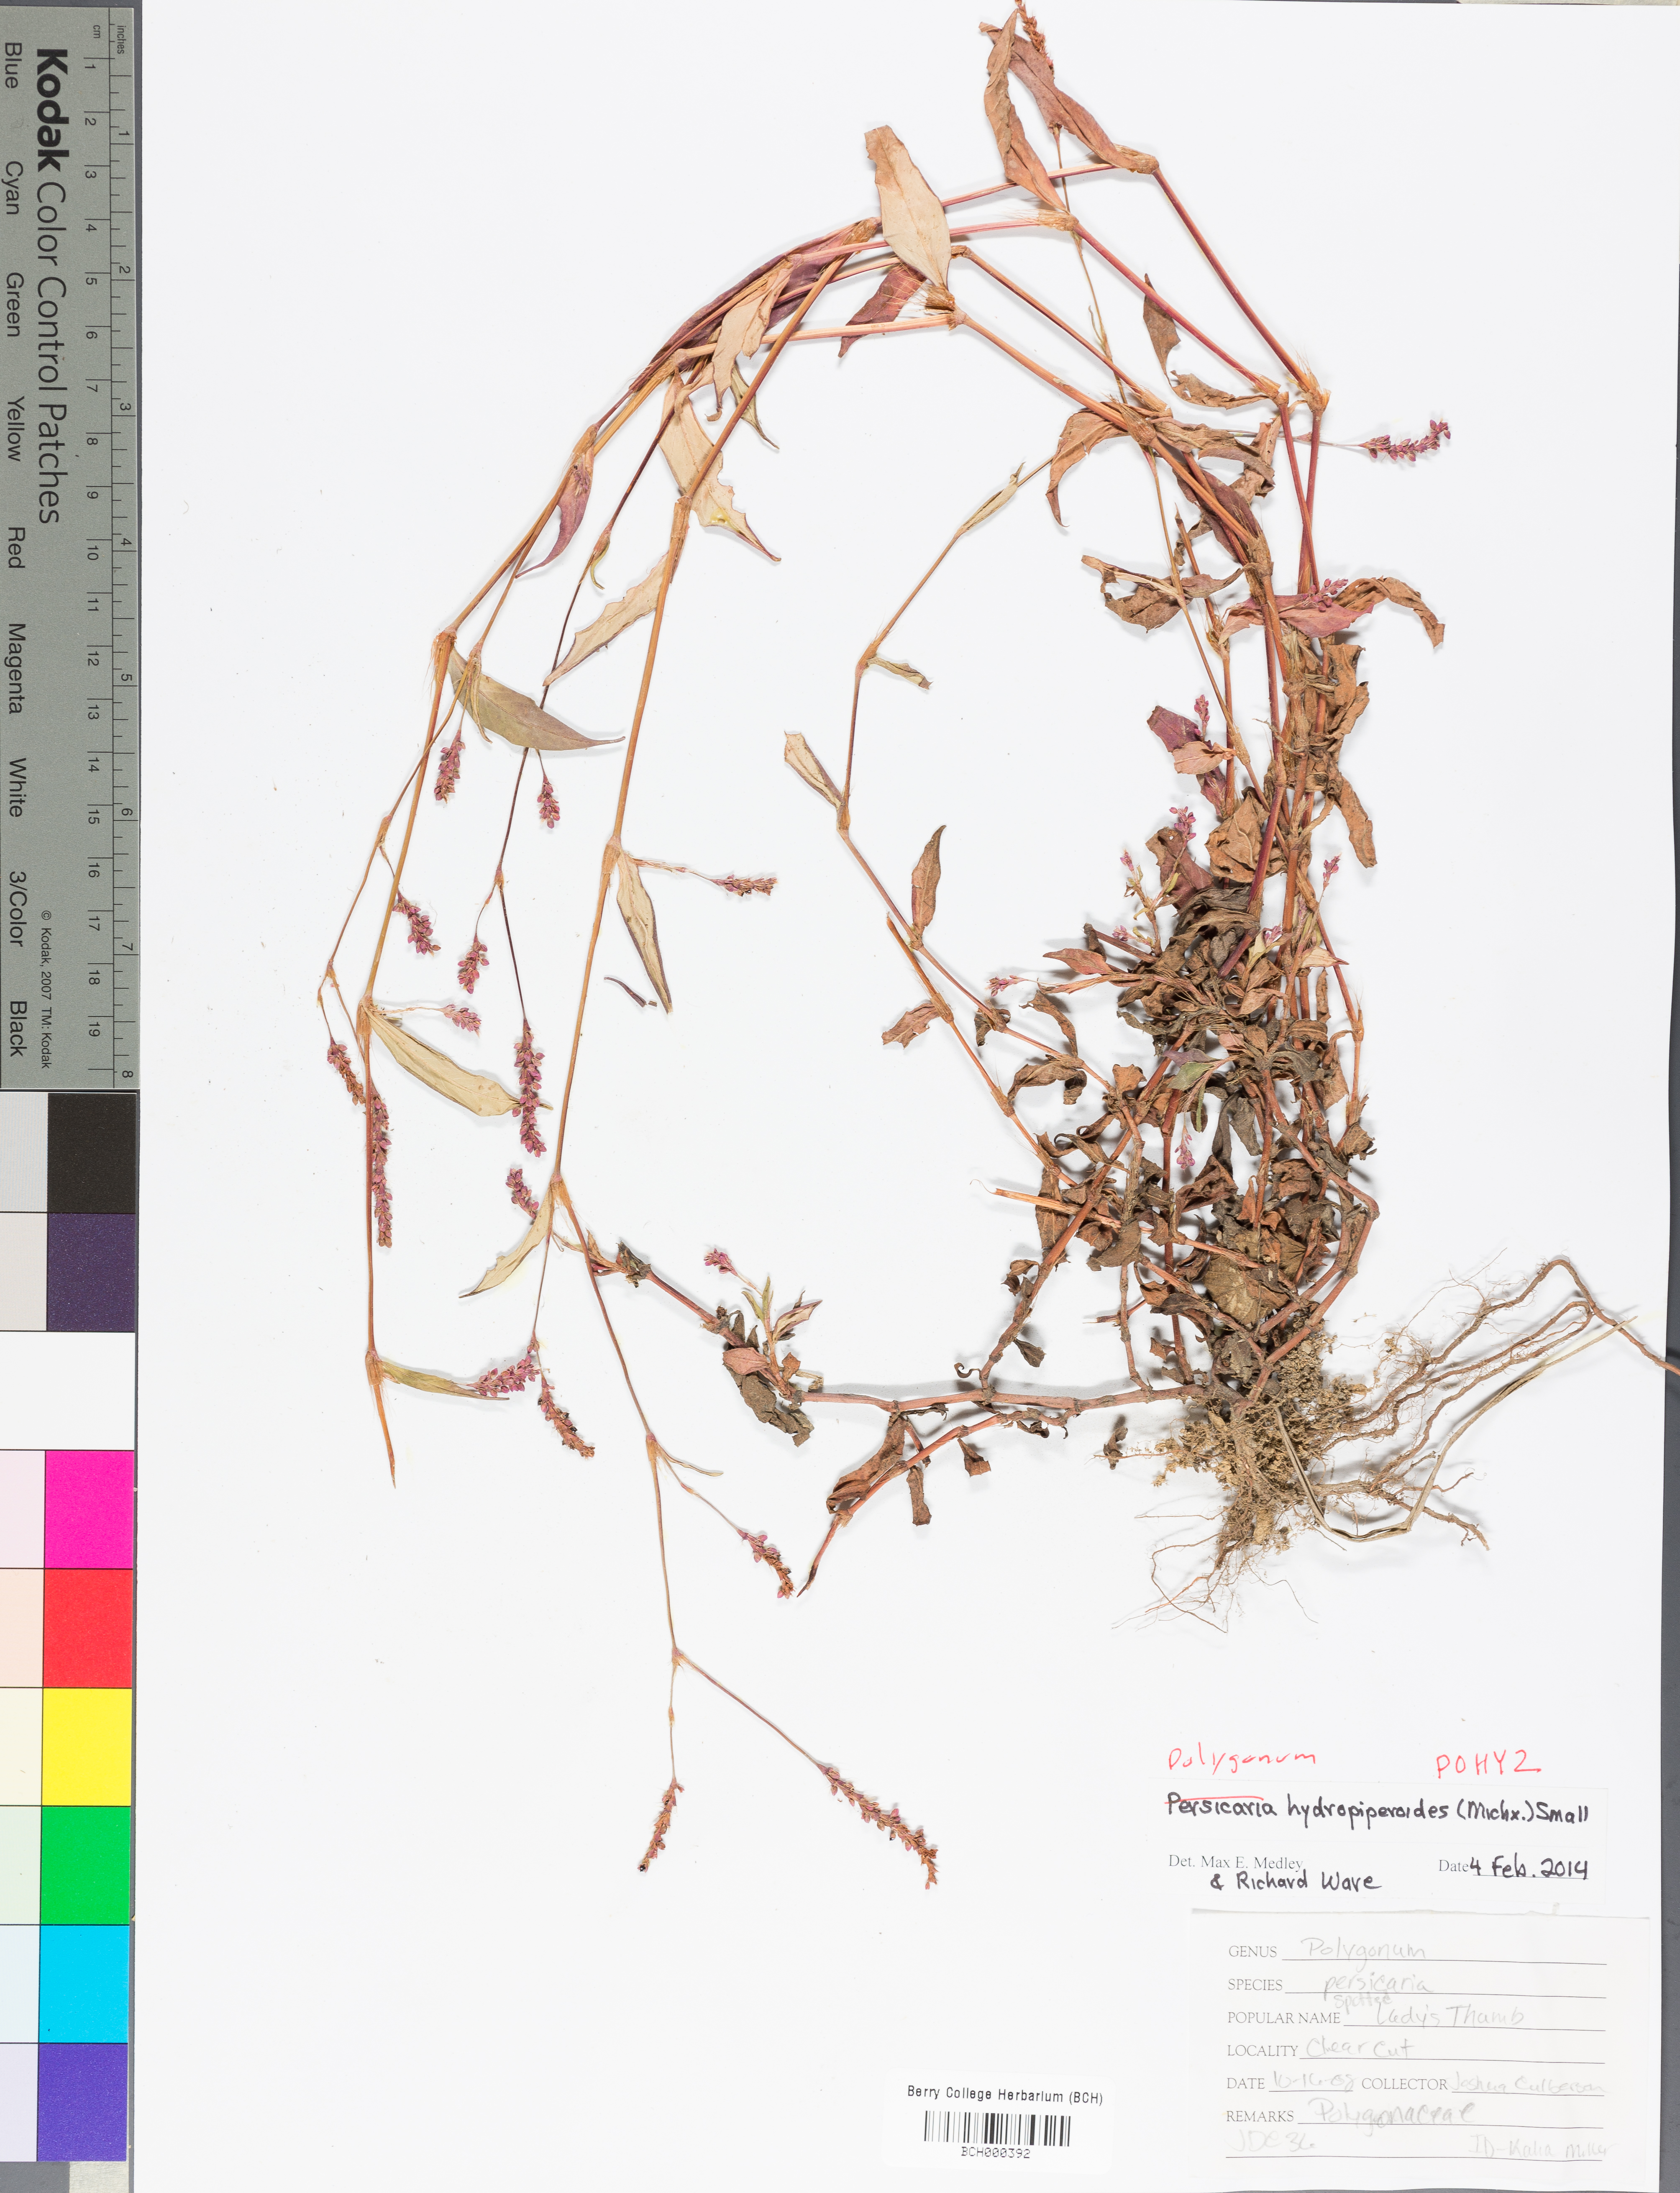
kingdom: Plantae
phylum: Tracheophyta
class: Magnoliopsida
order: Caryophyllales
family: Polygonaceae
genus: Persicaria
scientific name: Persicaria hydropiperoides
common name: Swamp smartweed
